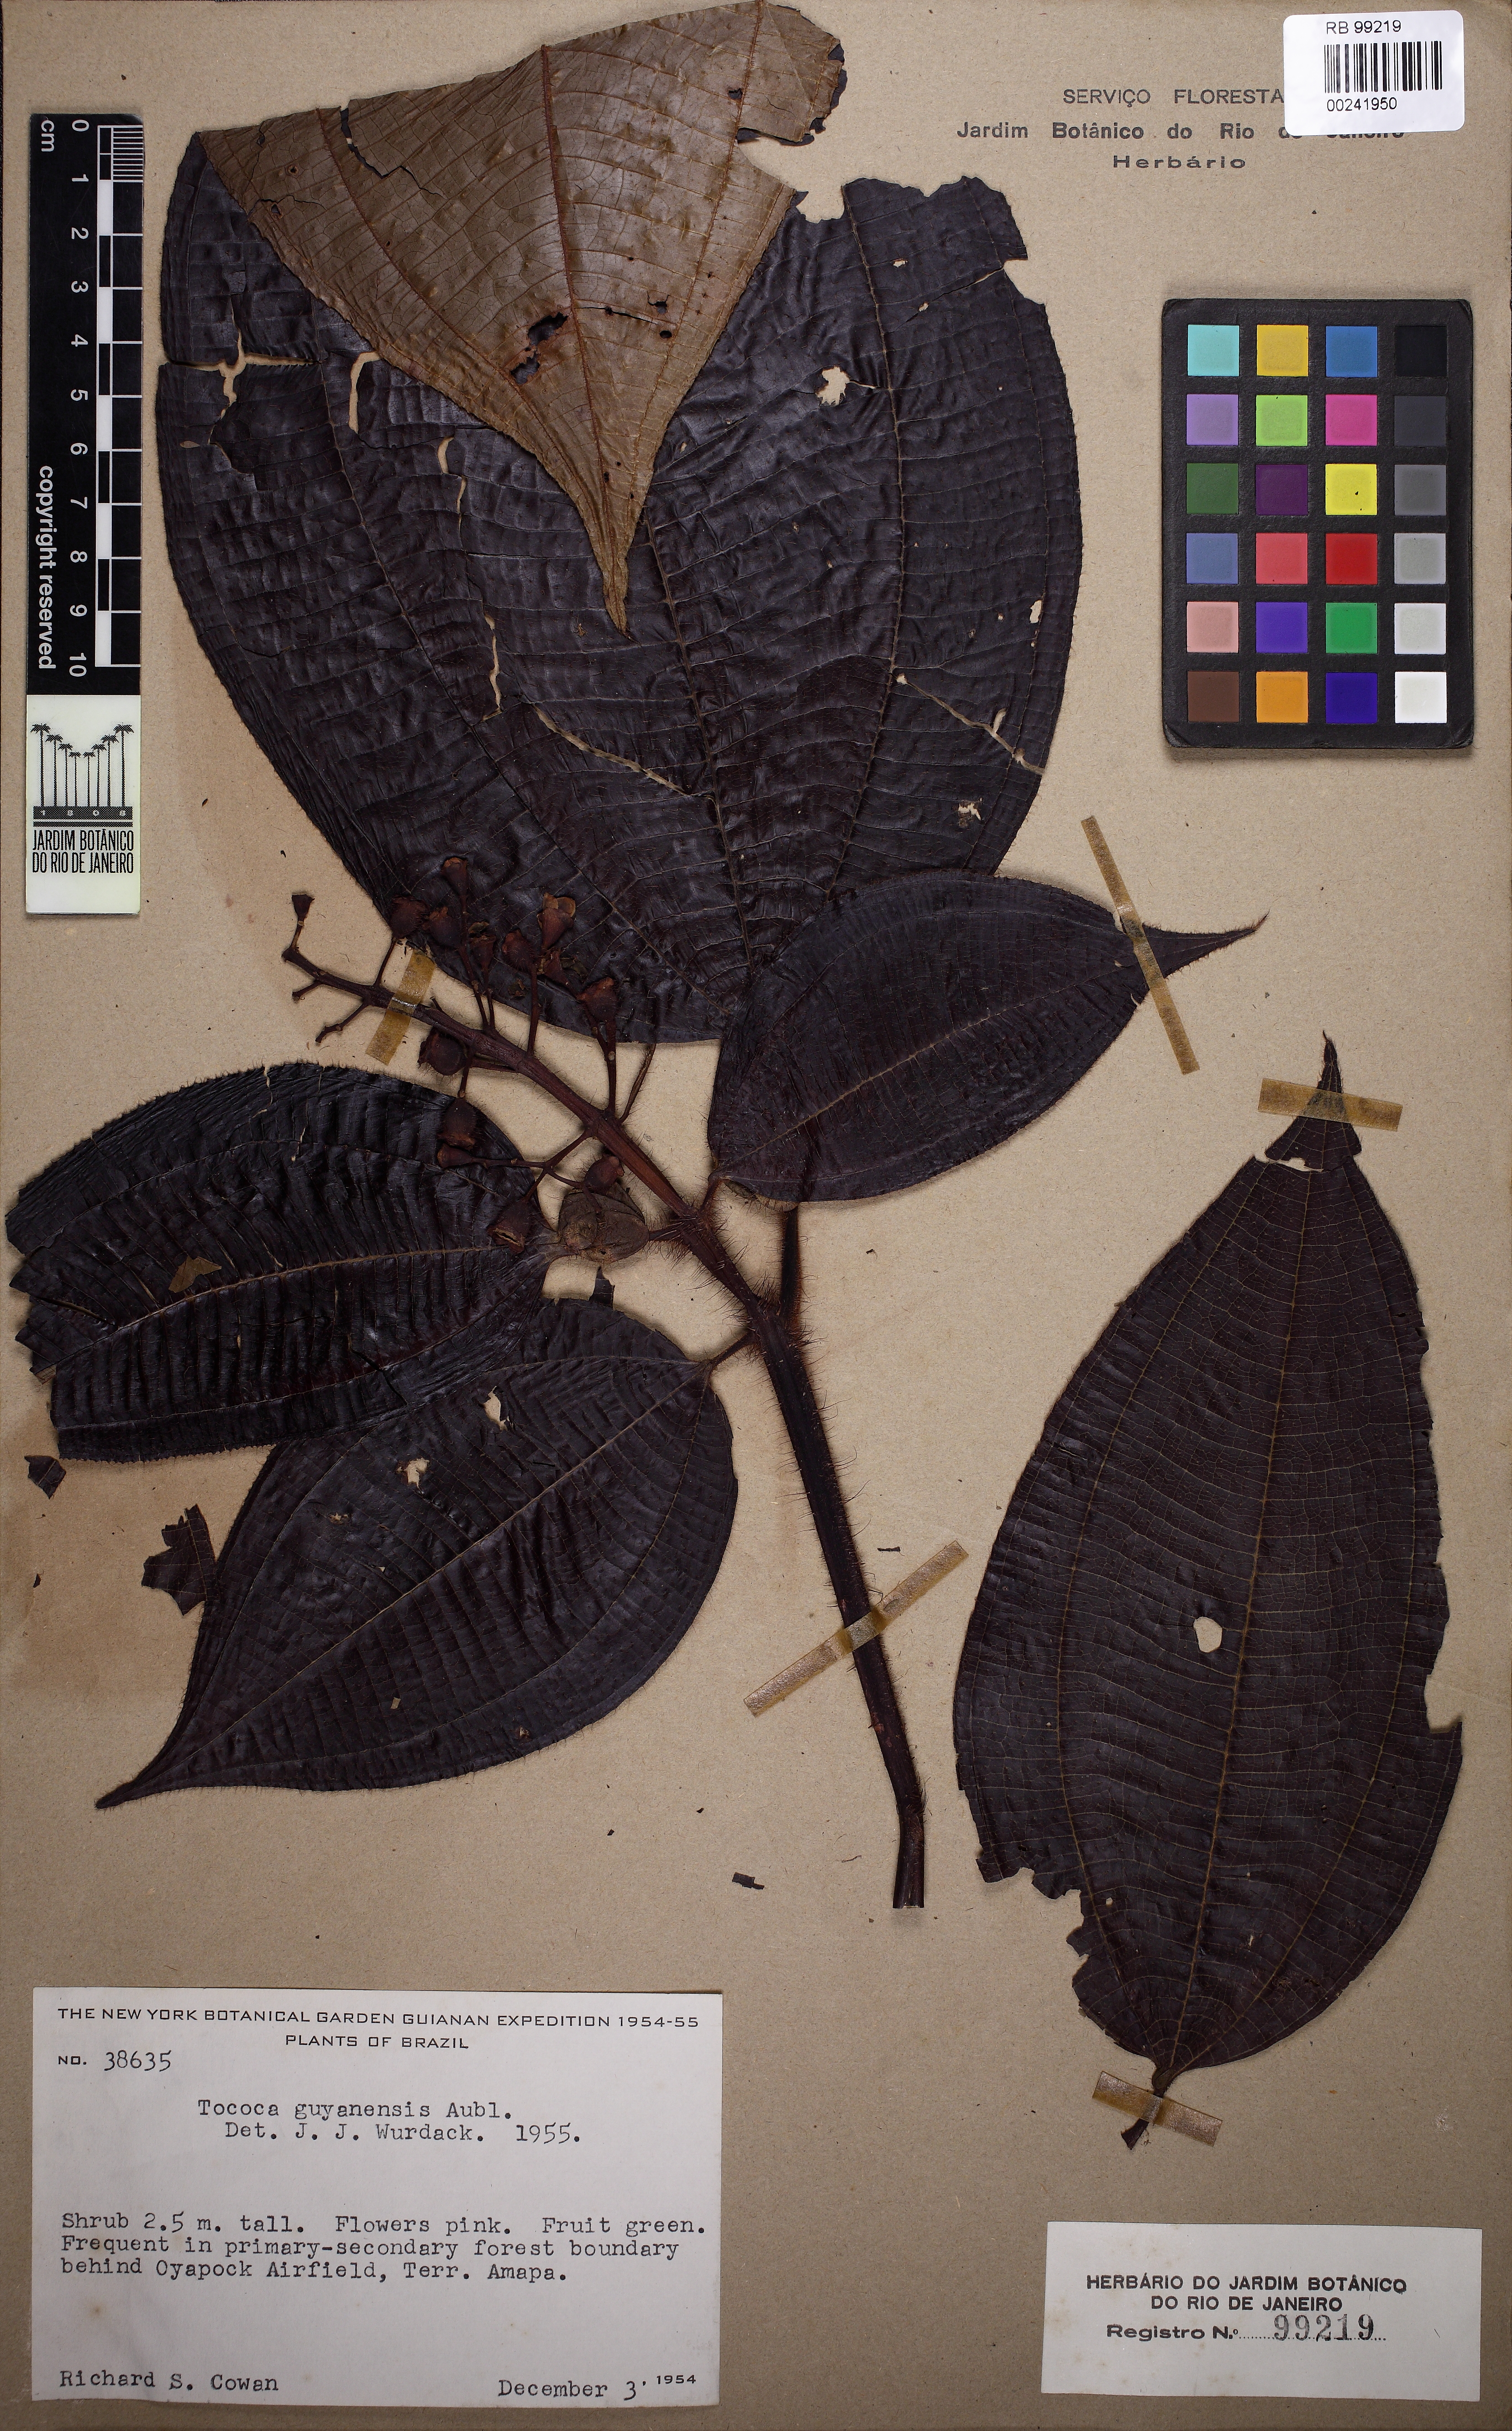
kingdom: Plantae
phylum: Tracheophyta
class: Magnoliopsida
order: Myrtales
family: Melastomataceae
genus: Miconia
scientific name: Miconia tococa
